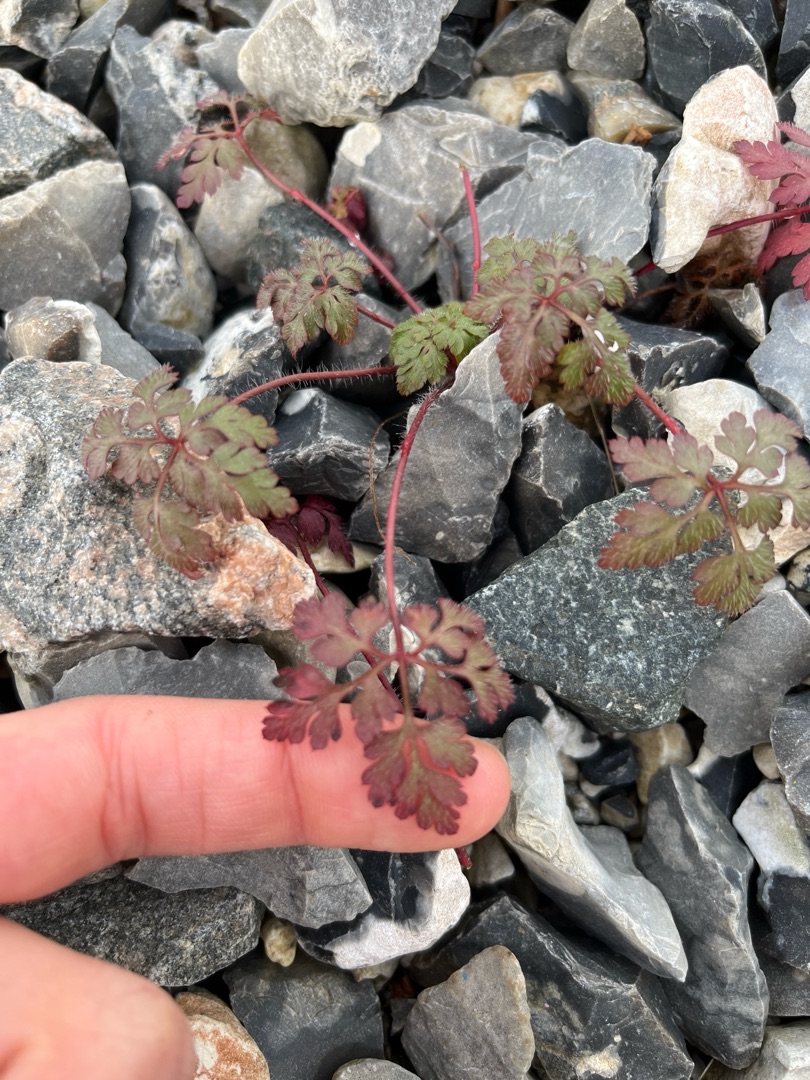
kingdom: Plantae
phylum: Tracheophyta
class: Magnoliopsida
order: Geraniales
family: Geraniaceae
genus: Geranium
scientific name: Geranium robertianum
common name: Stinkende storkenæb
